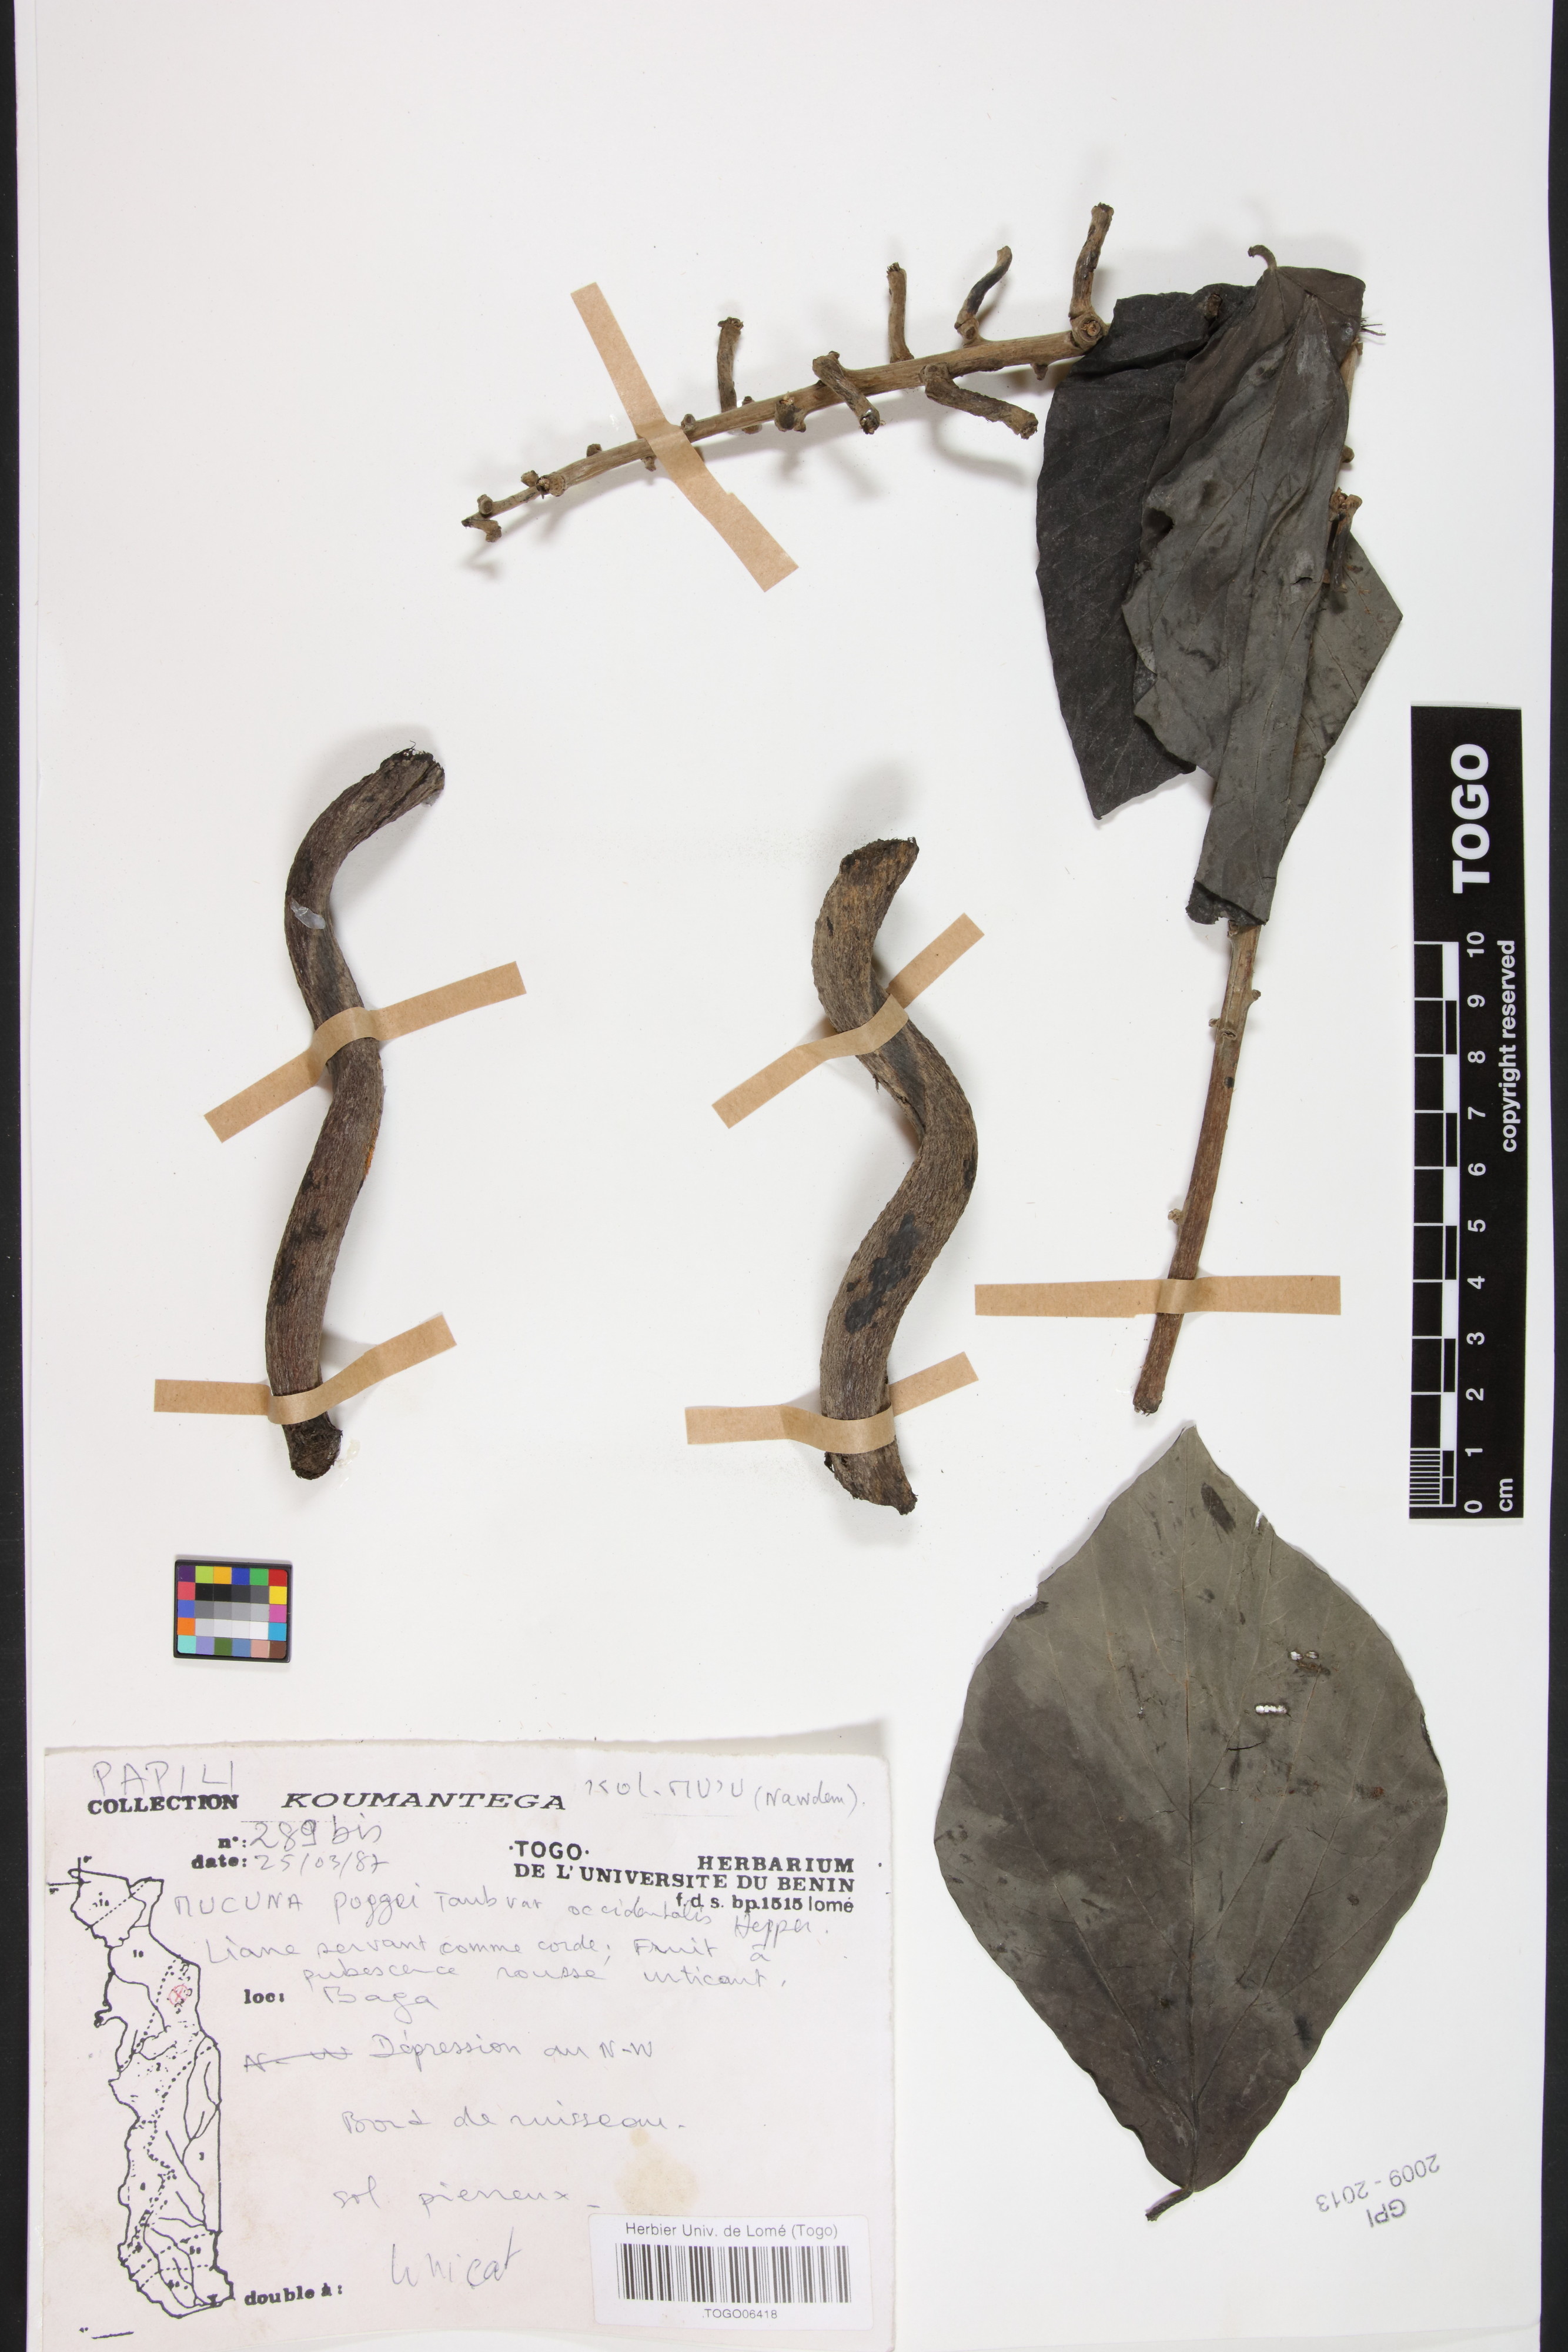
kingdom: Plantae
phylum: Tracheophyta
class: Magnoliopsida
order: Fabales
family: Fabaceae
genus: Mucuna
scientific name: Mucuna occidentalis
